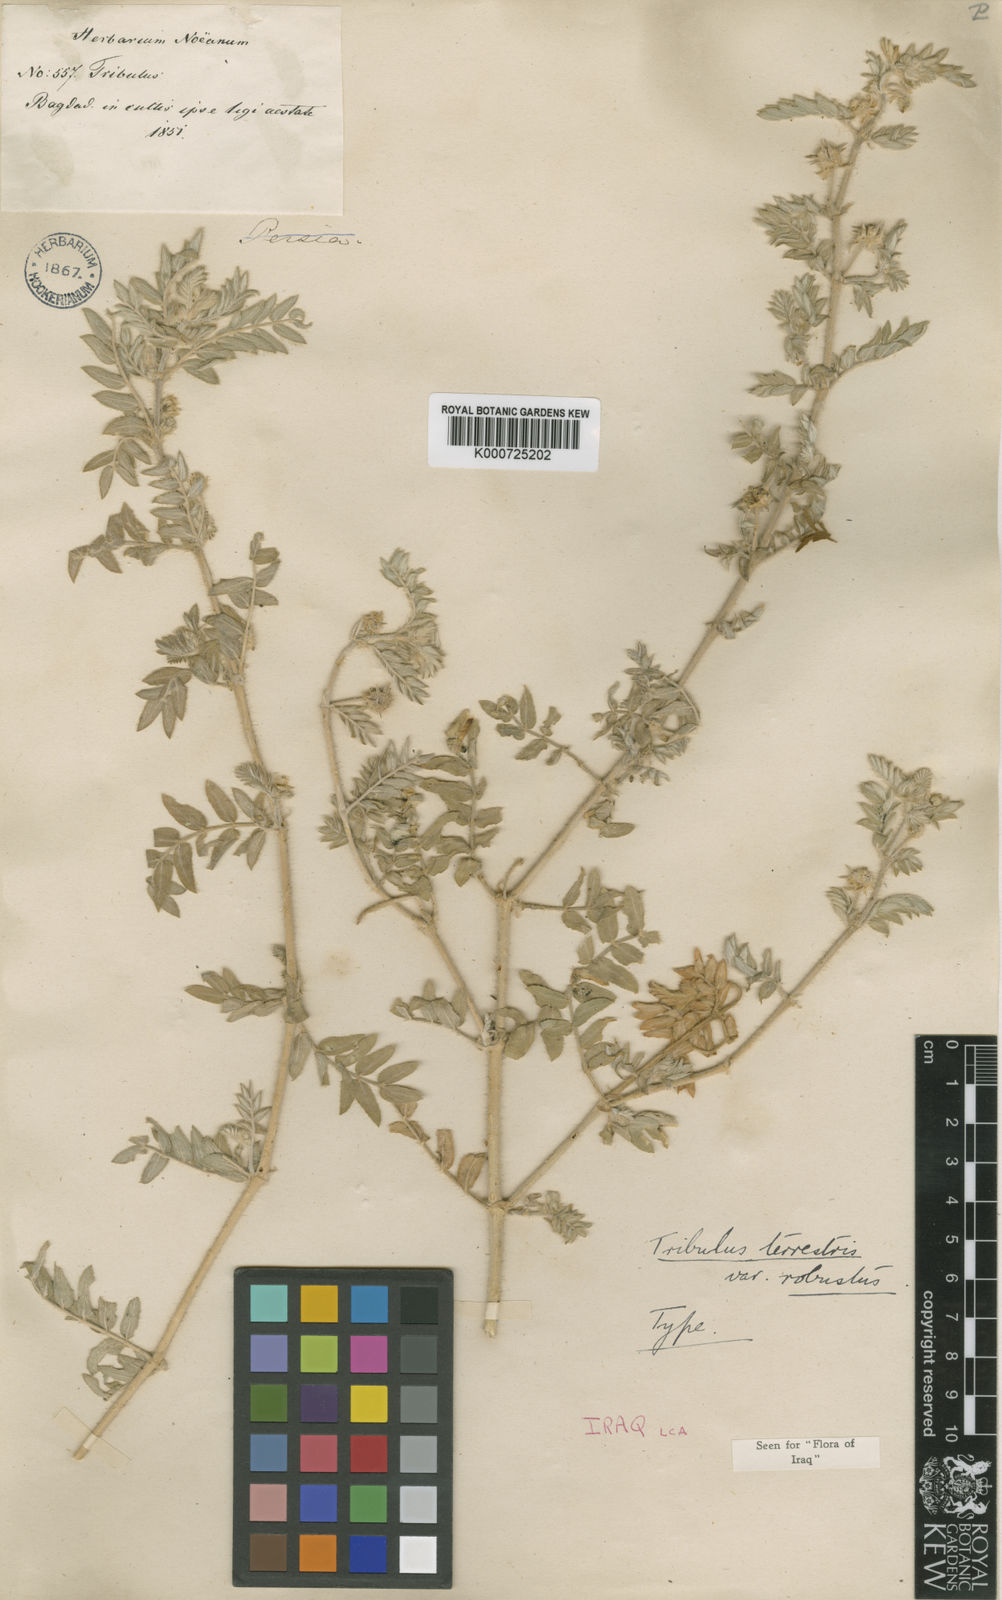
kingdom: Plantae
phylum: Tracheophyta
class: Magnoliopsida
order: Zygophyllales
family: Zygophyllaceae
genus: Tribulus
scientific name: Tribulus terrestris
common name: Puncturevine
